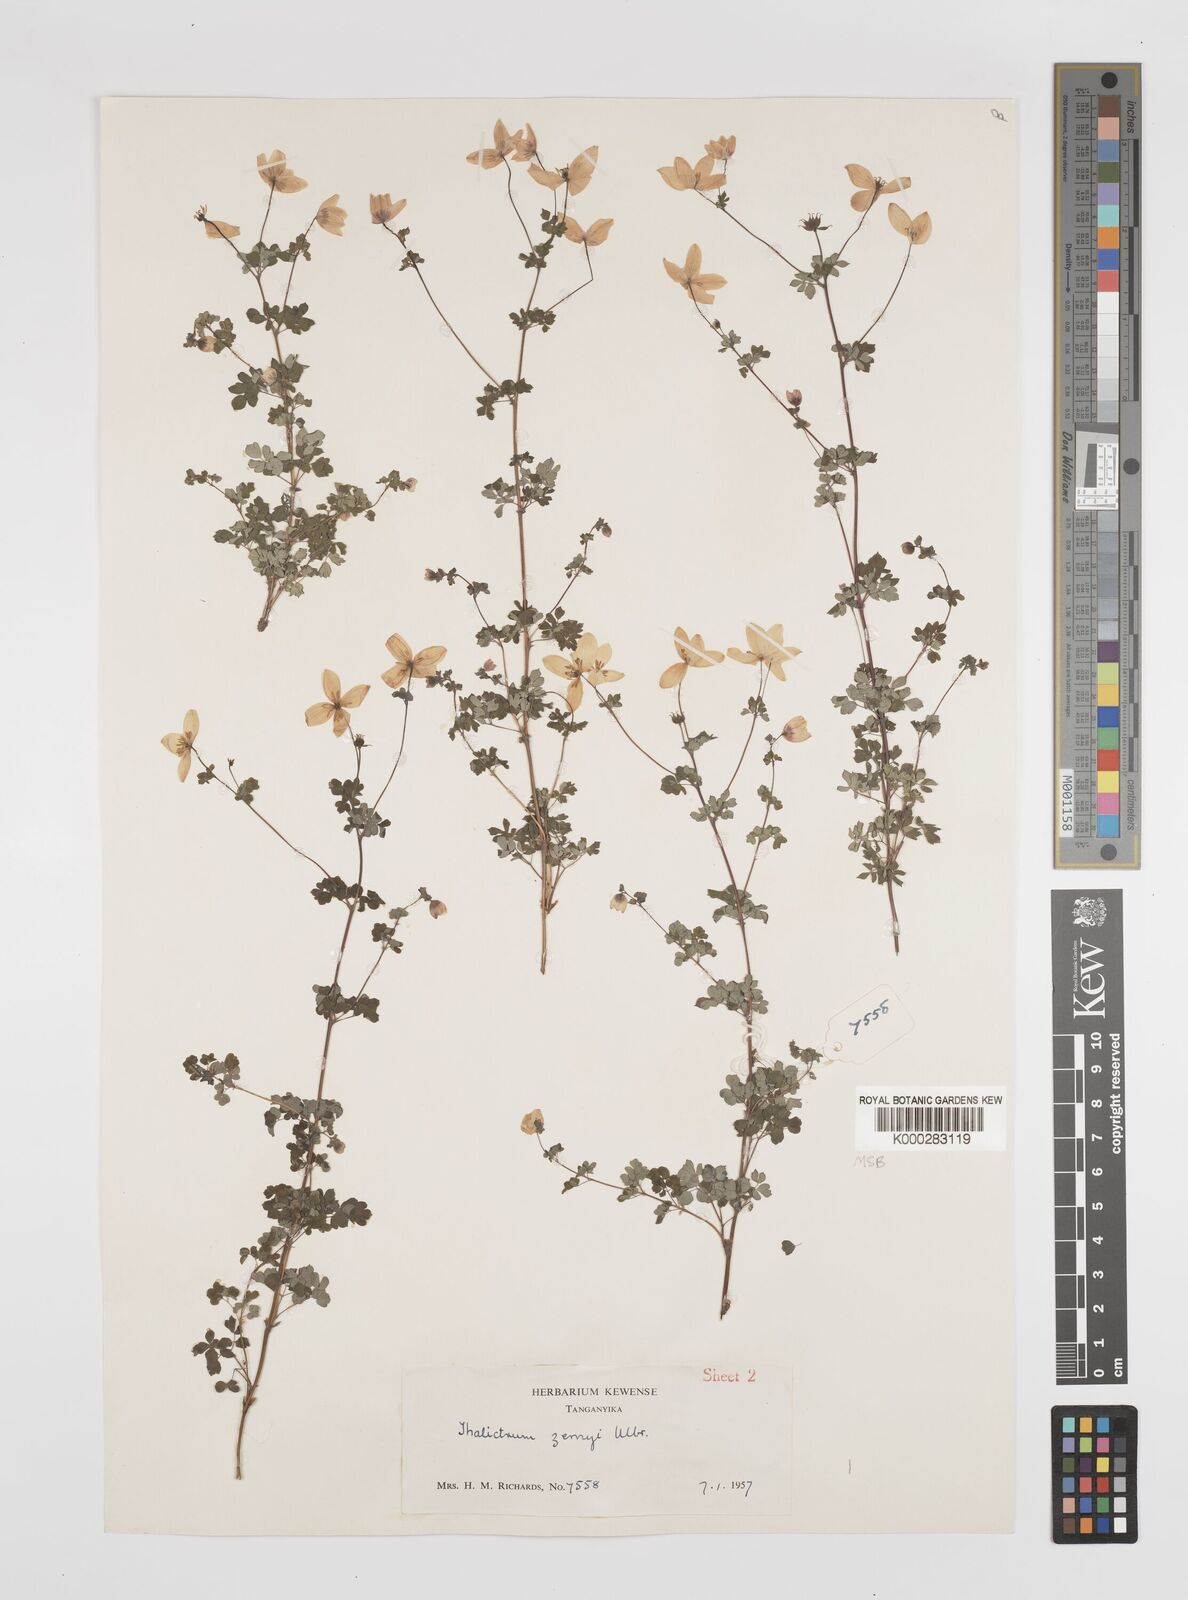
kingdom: Plantae
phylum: Tracheophyta
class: Magnoliopsida
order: Ranunculales
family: Ranunculaceae
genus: Thalictrum
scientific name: Thalictrum zernyi
